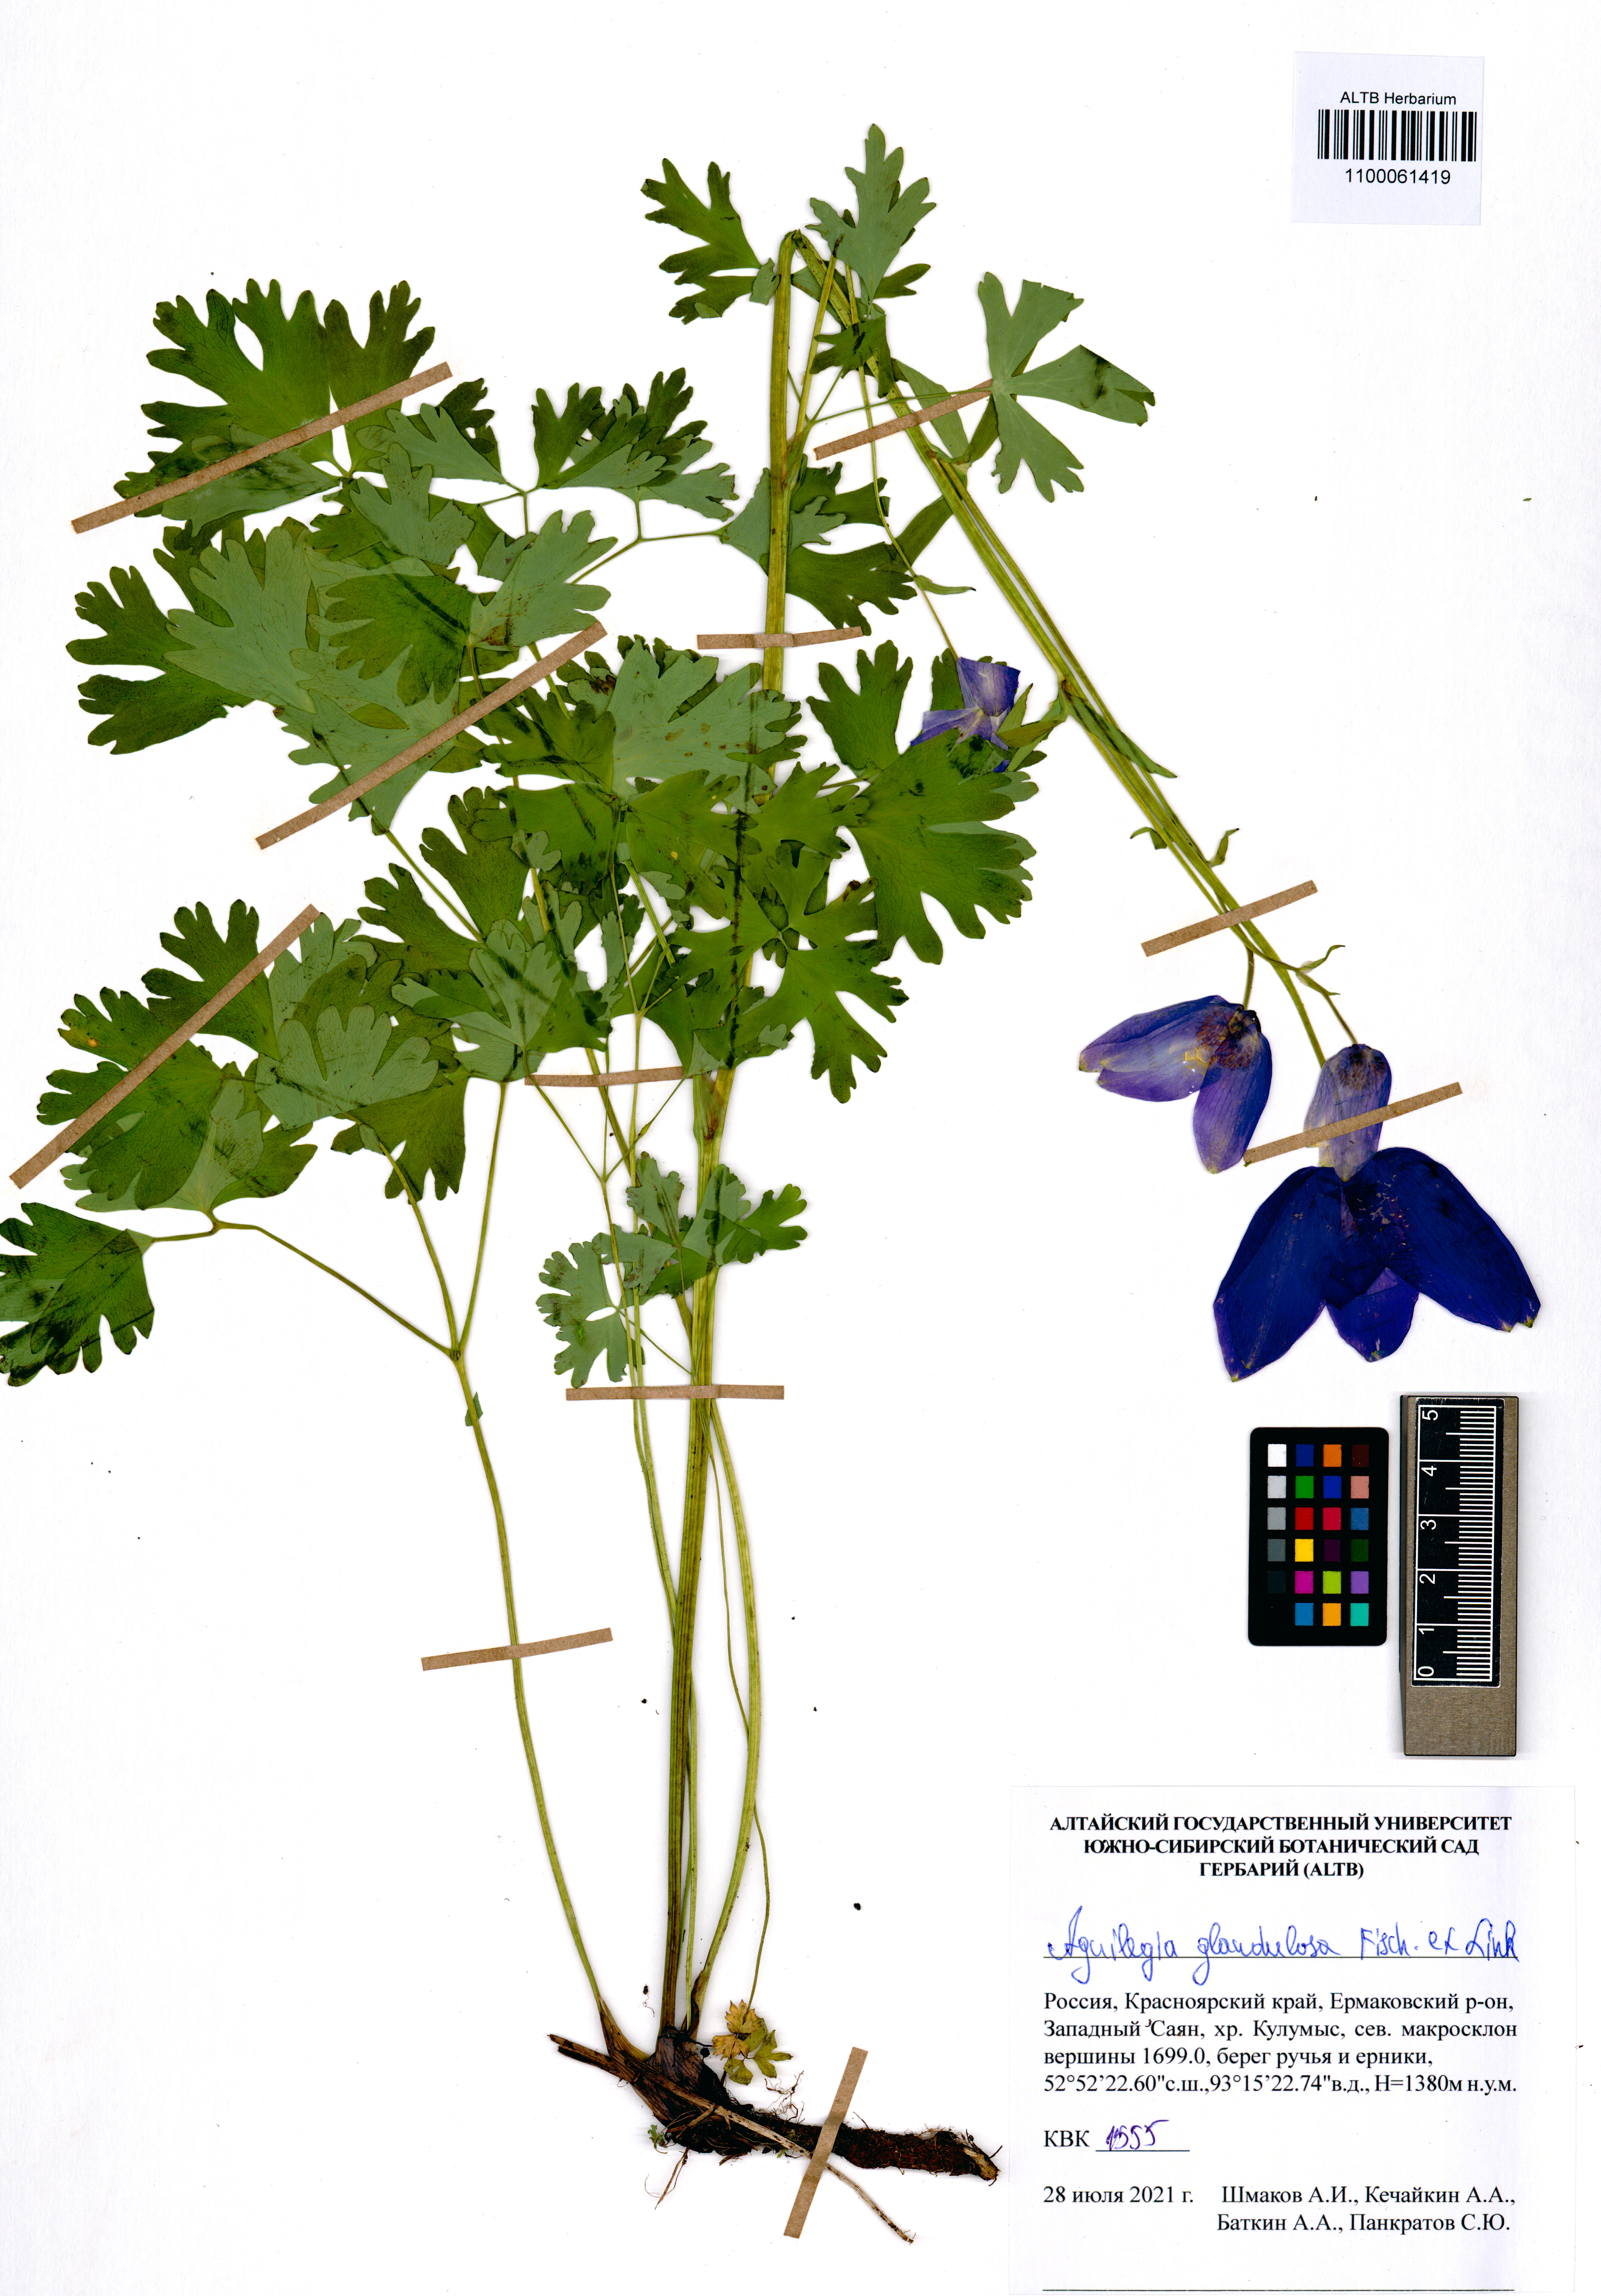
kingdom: Plantae
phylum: Tracheophyta
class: Magnoliopsida
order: Ranunculales
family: Ranunculaceae
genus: Aquilegia
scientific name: Aquilegia glandulosa
